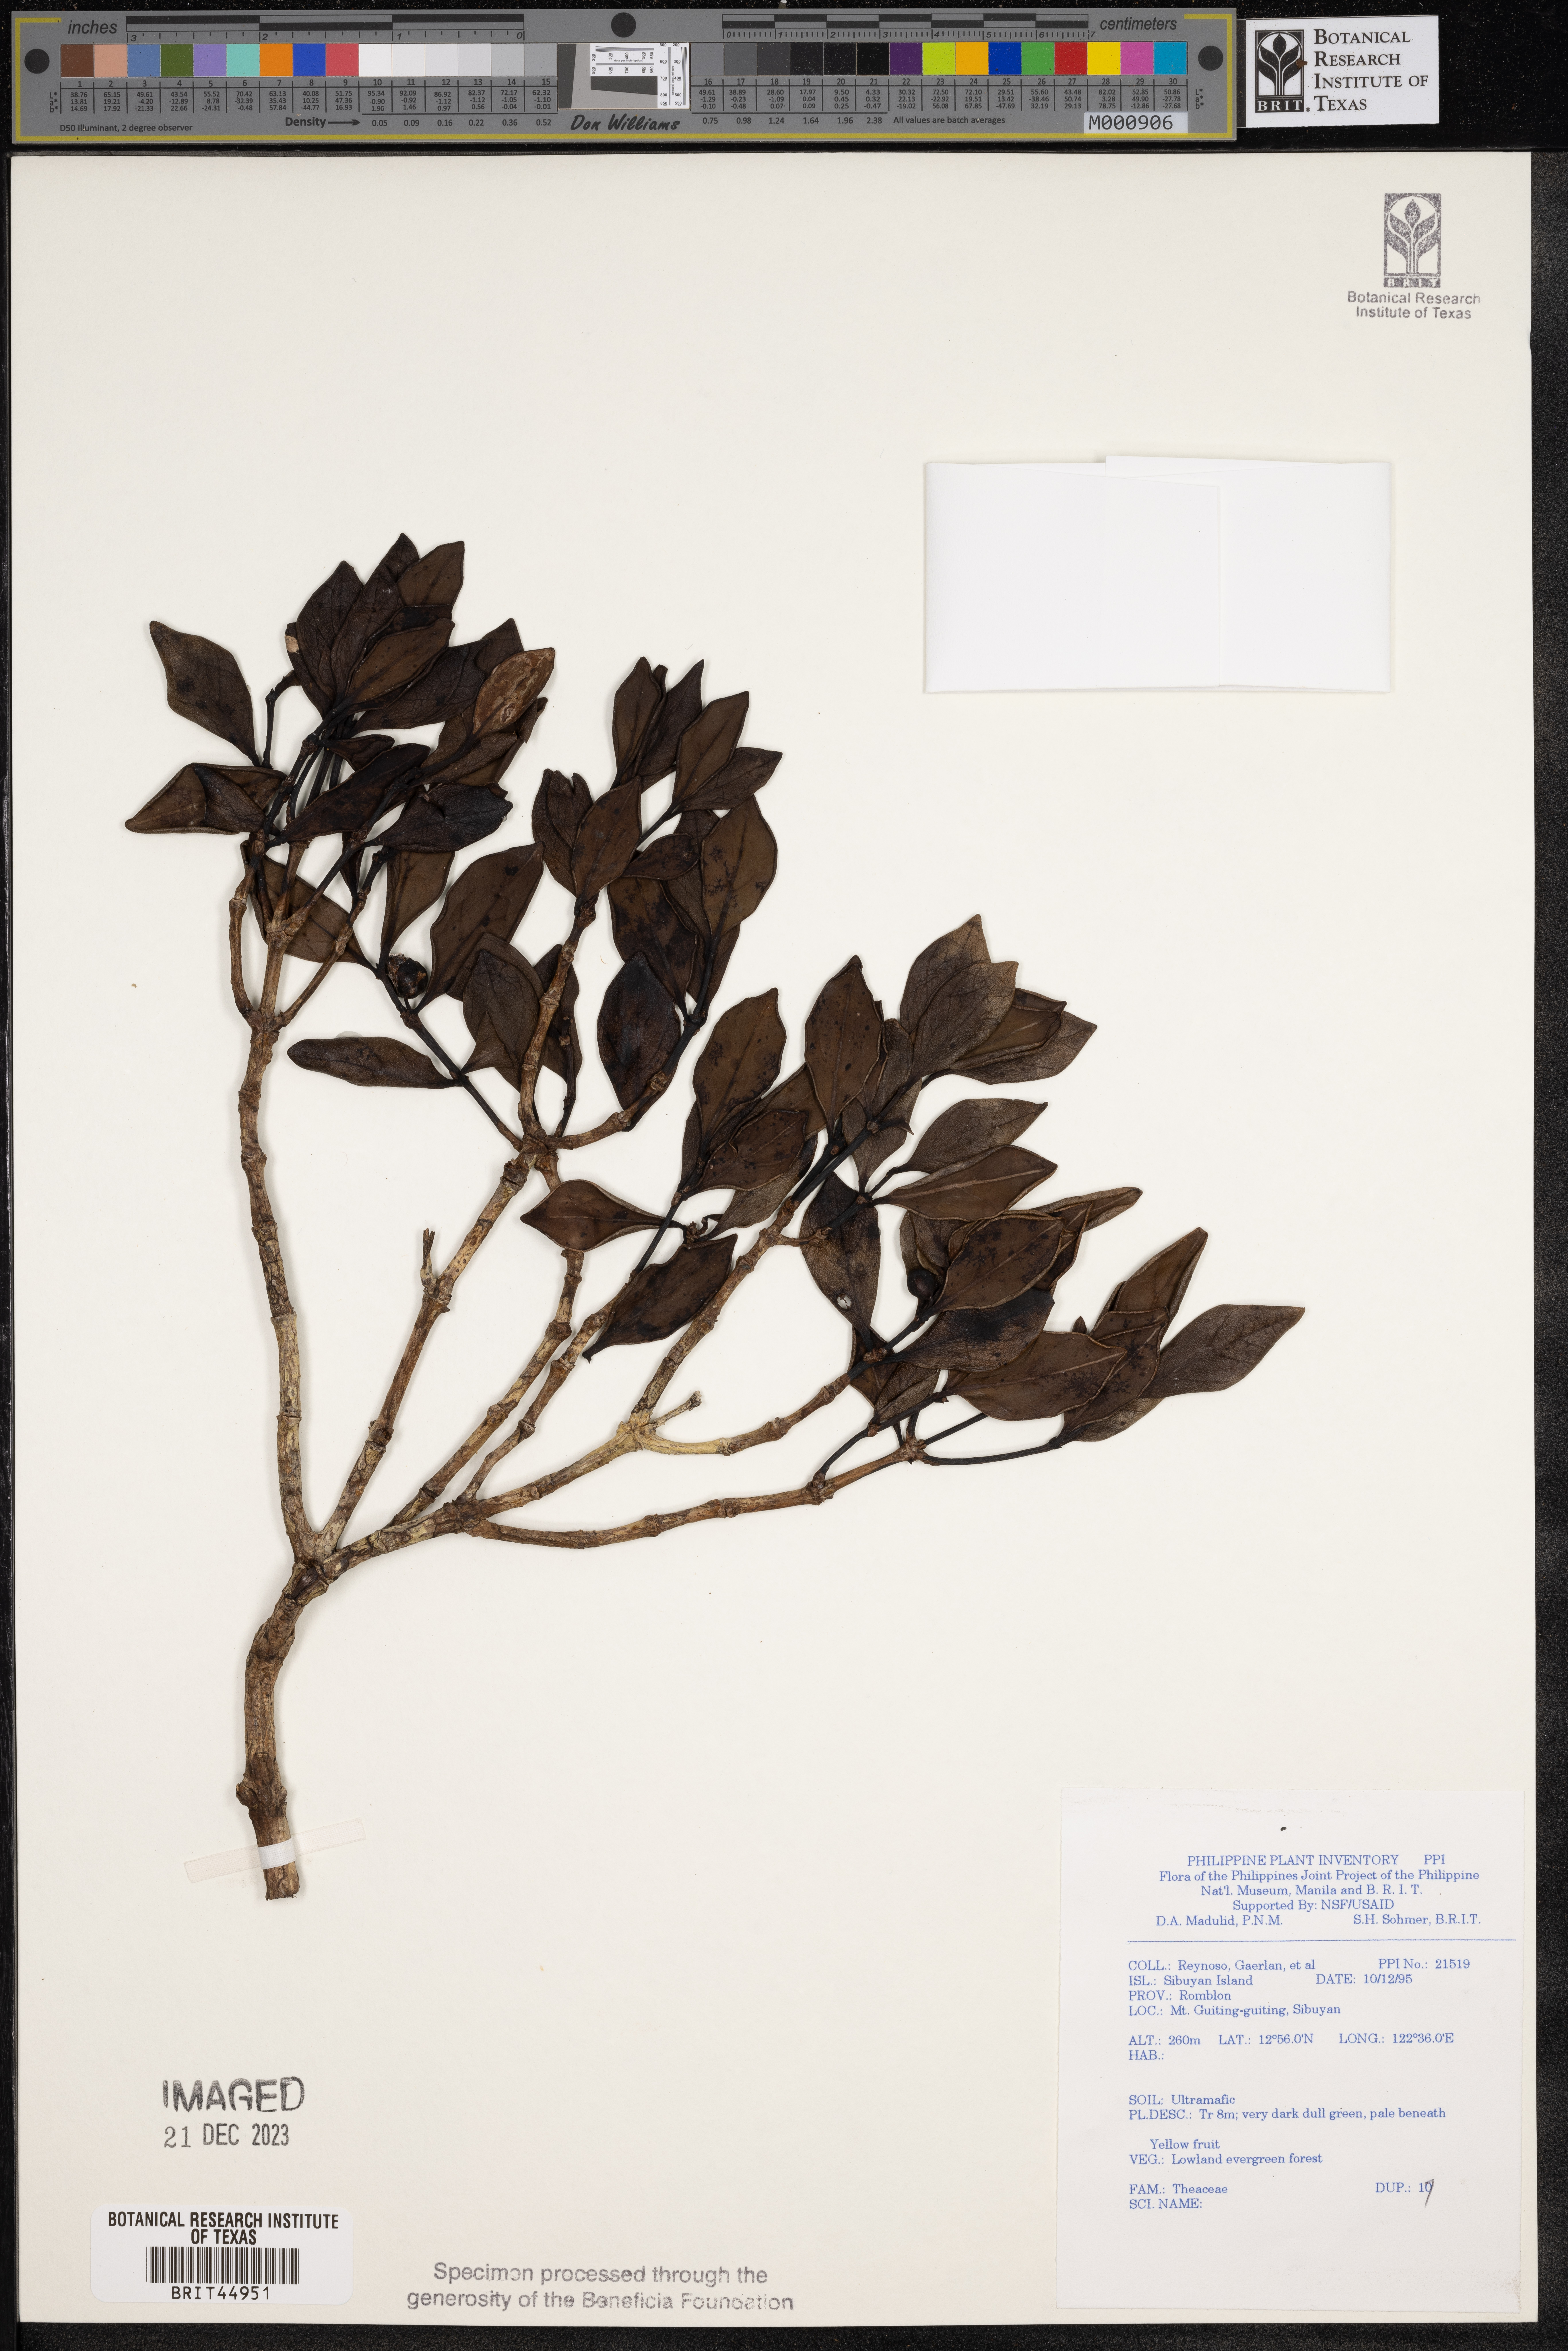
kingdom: Plantae
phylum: Tracheophyta
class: Magnoliopsida
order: Ericales
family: Theaceae
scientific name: Theaceae
